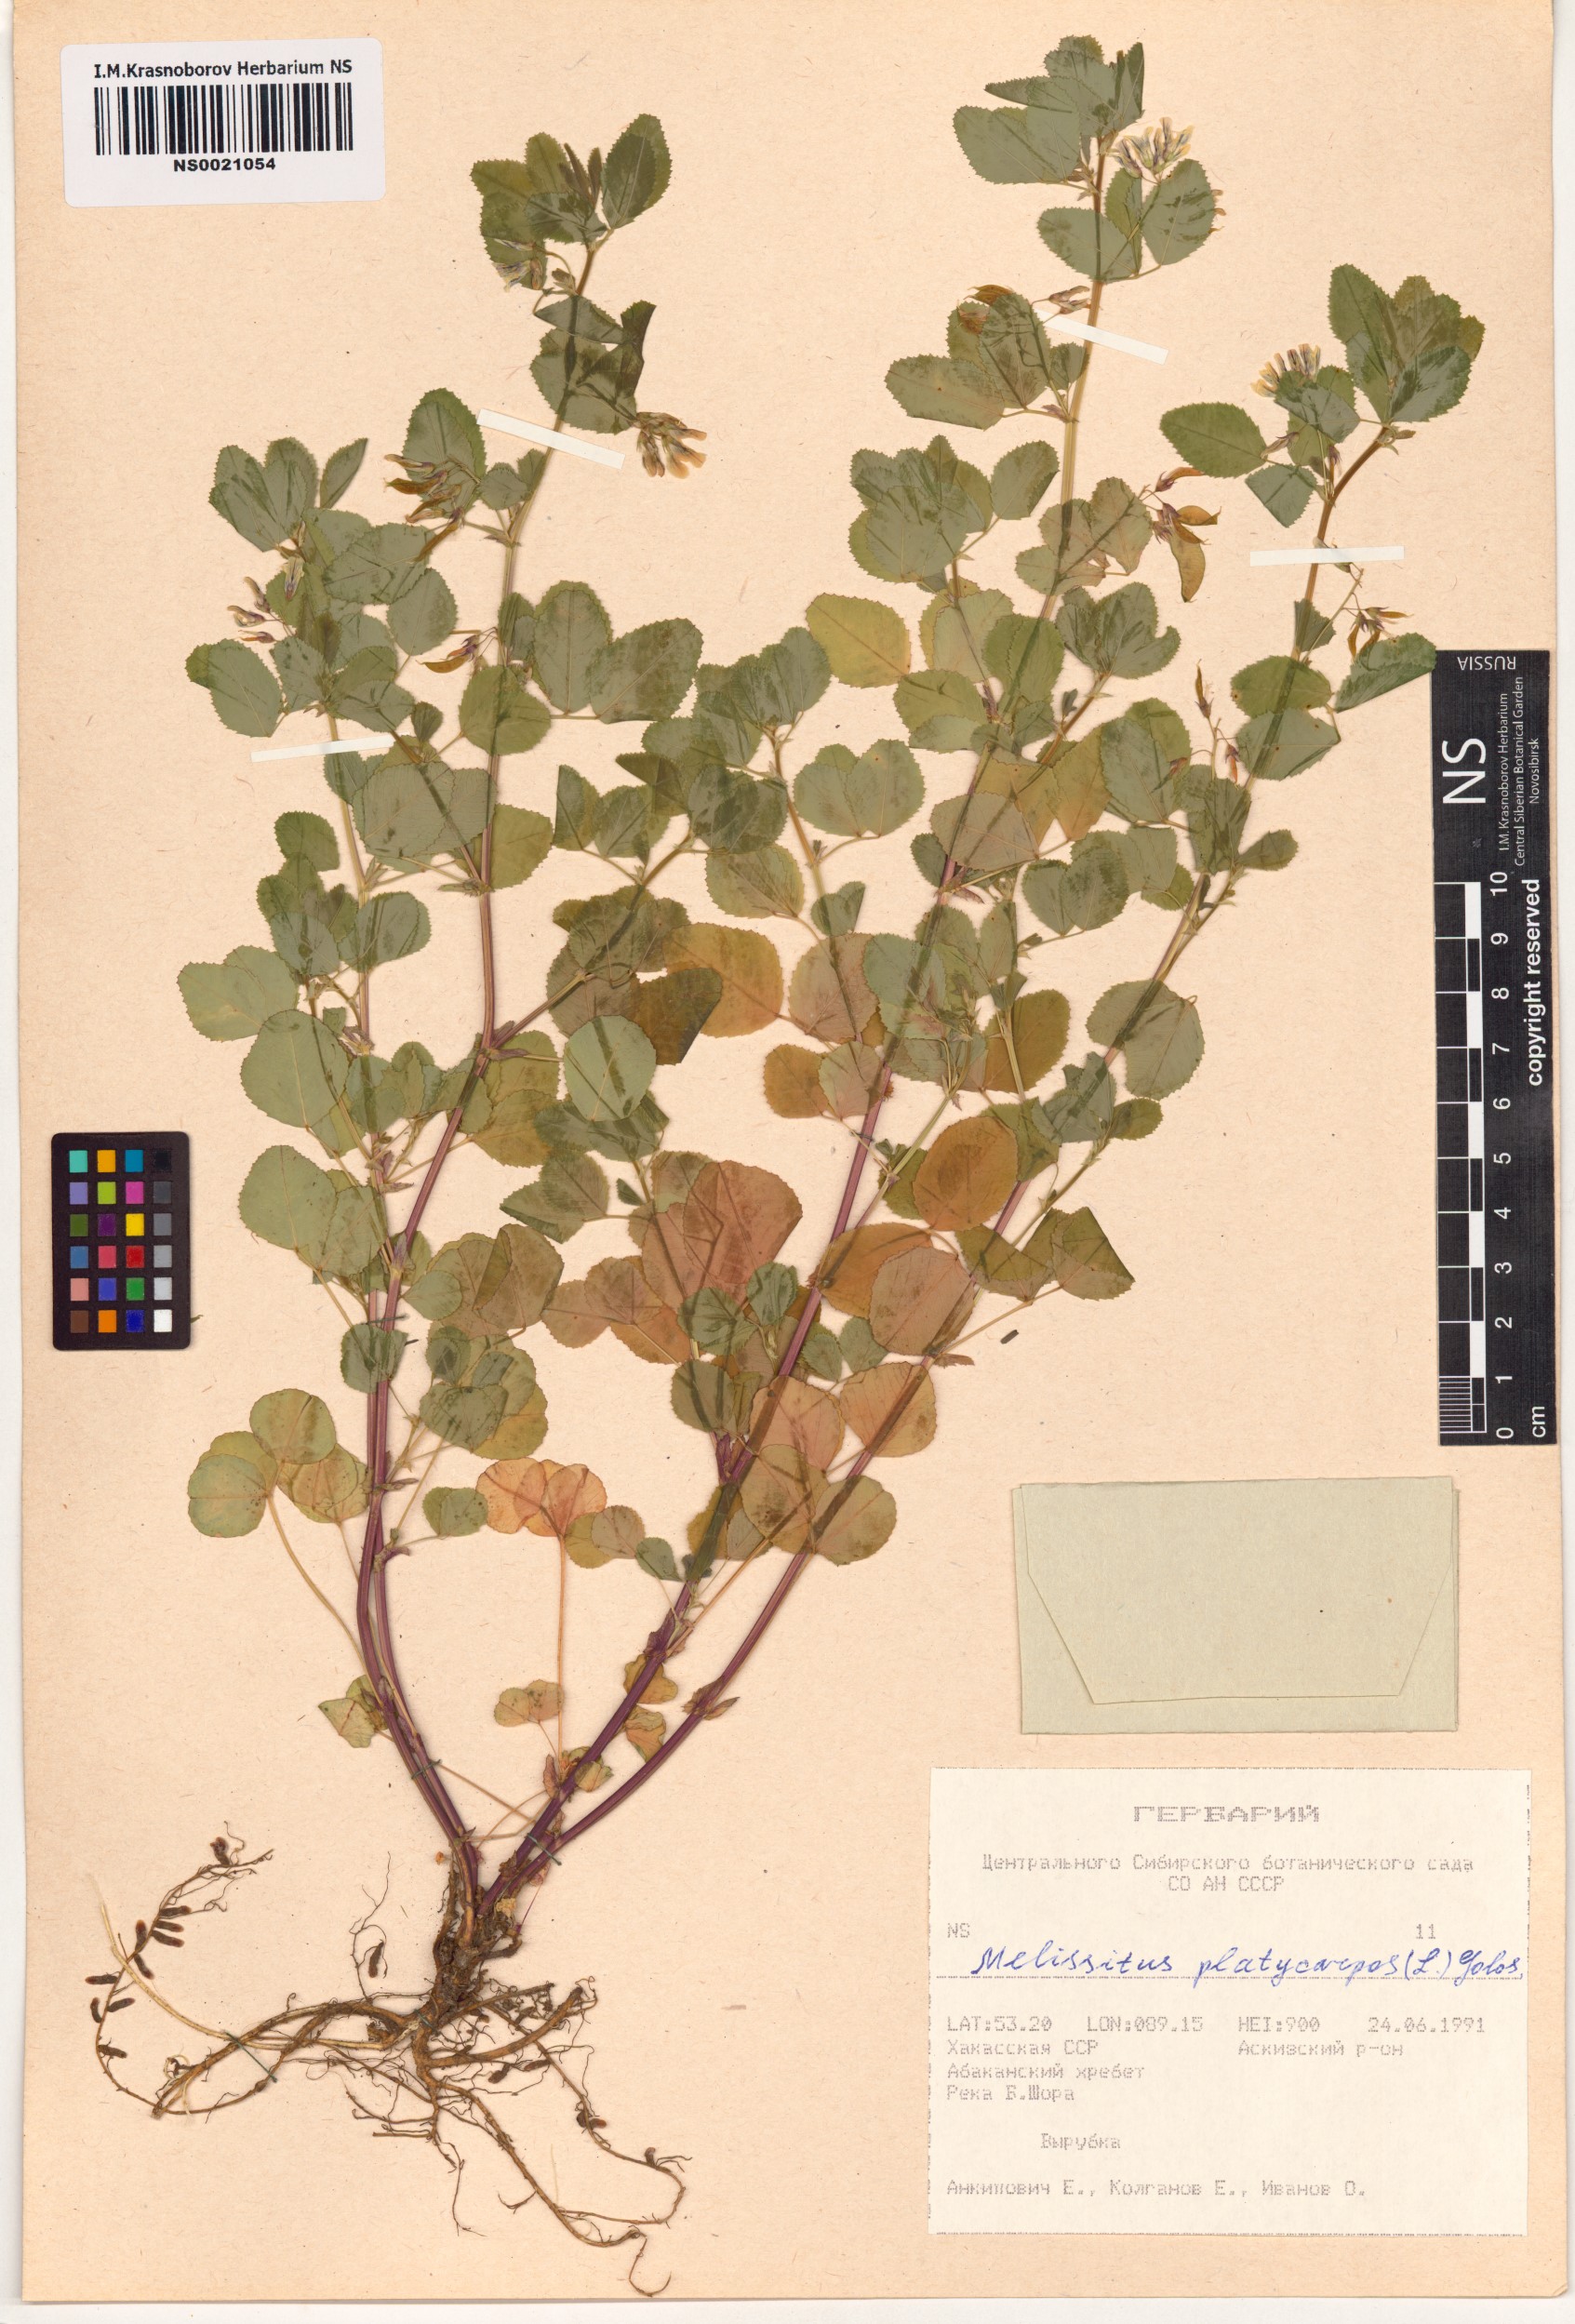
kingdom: Plantae
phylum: Tracheophyta
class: Magnoliopsida
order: Fabales
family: Fabaceae
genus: Medicago
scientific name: Medicago platycarpos
